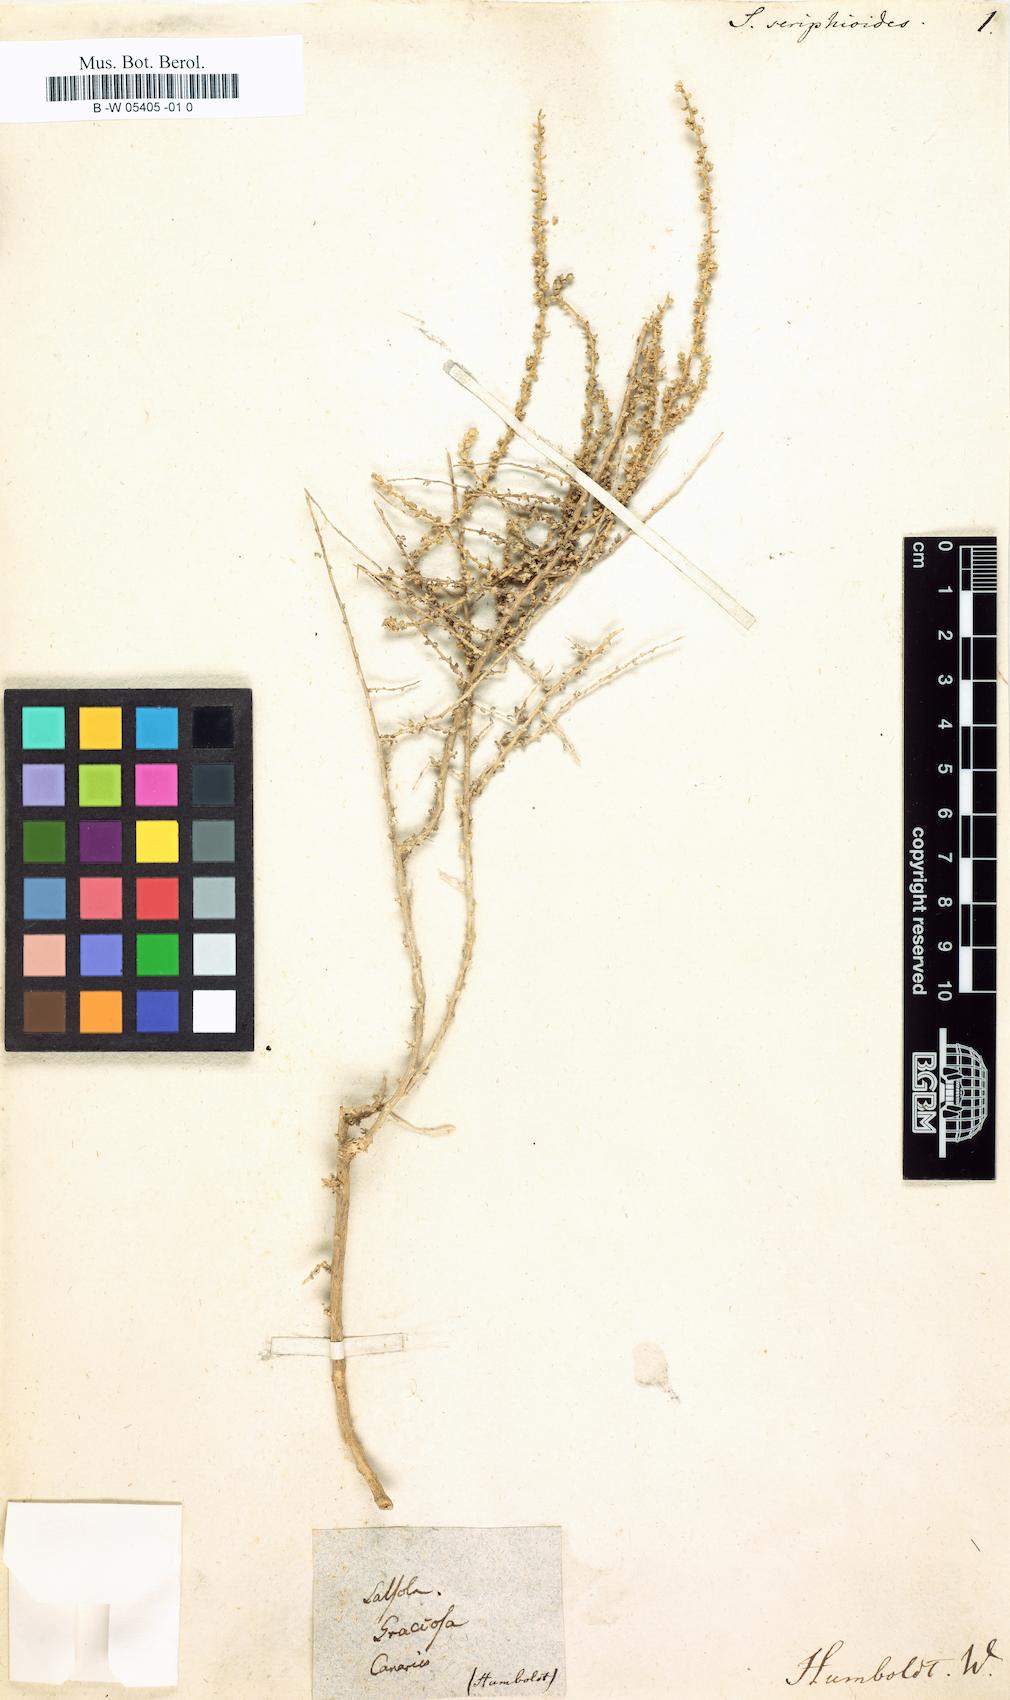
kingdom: Plantae
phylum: Tracheophyta
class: Magnoliopsida
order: Caryophyllales
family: Amaranthaceae
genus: Salsola
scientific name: Salsola seriphioides
